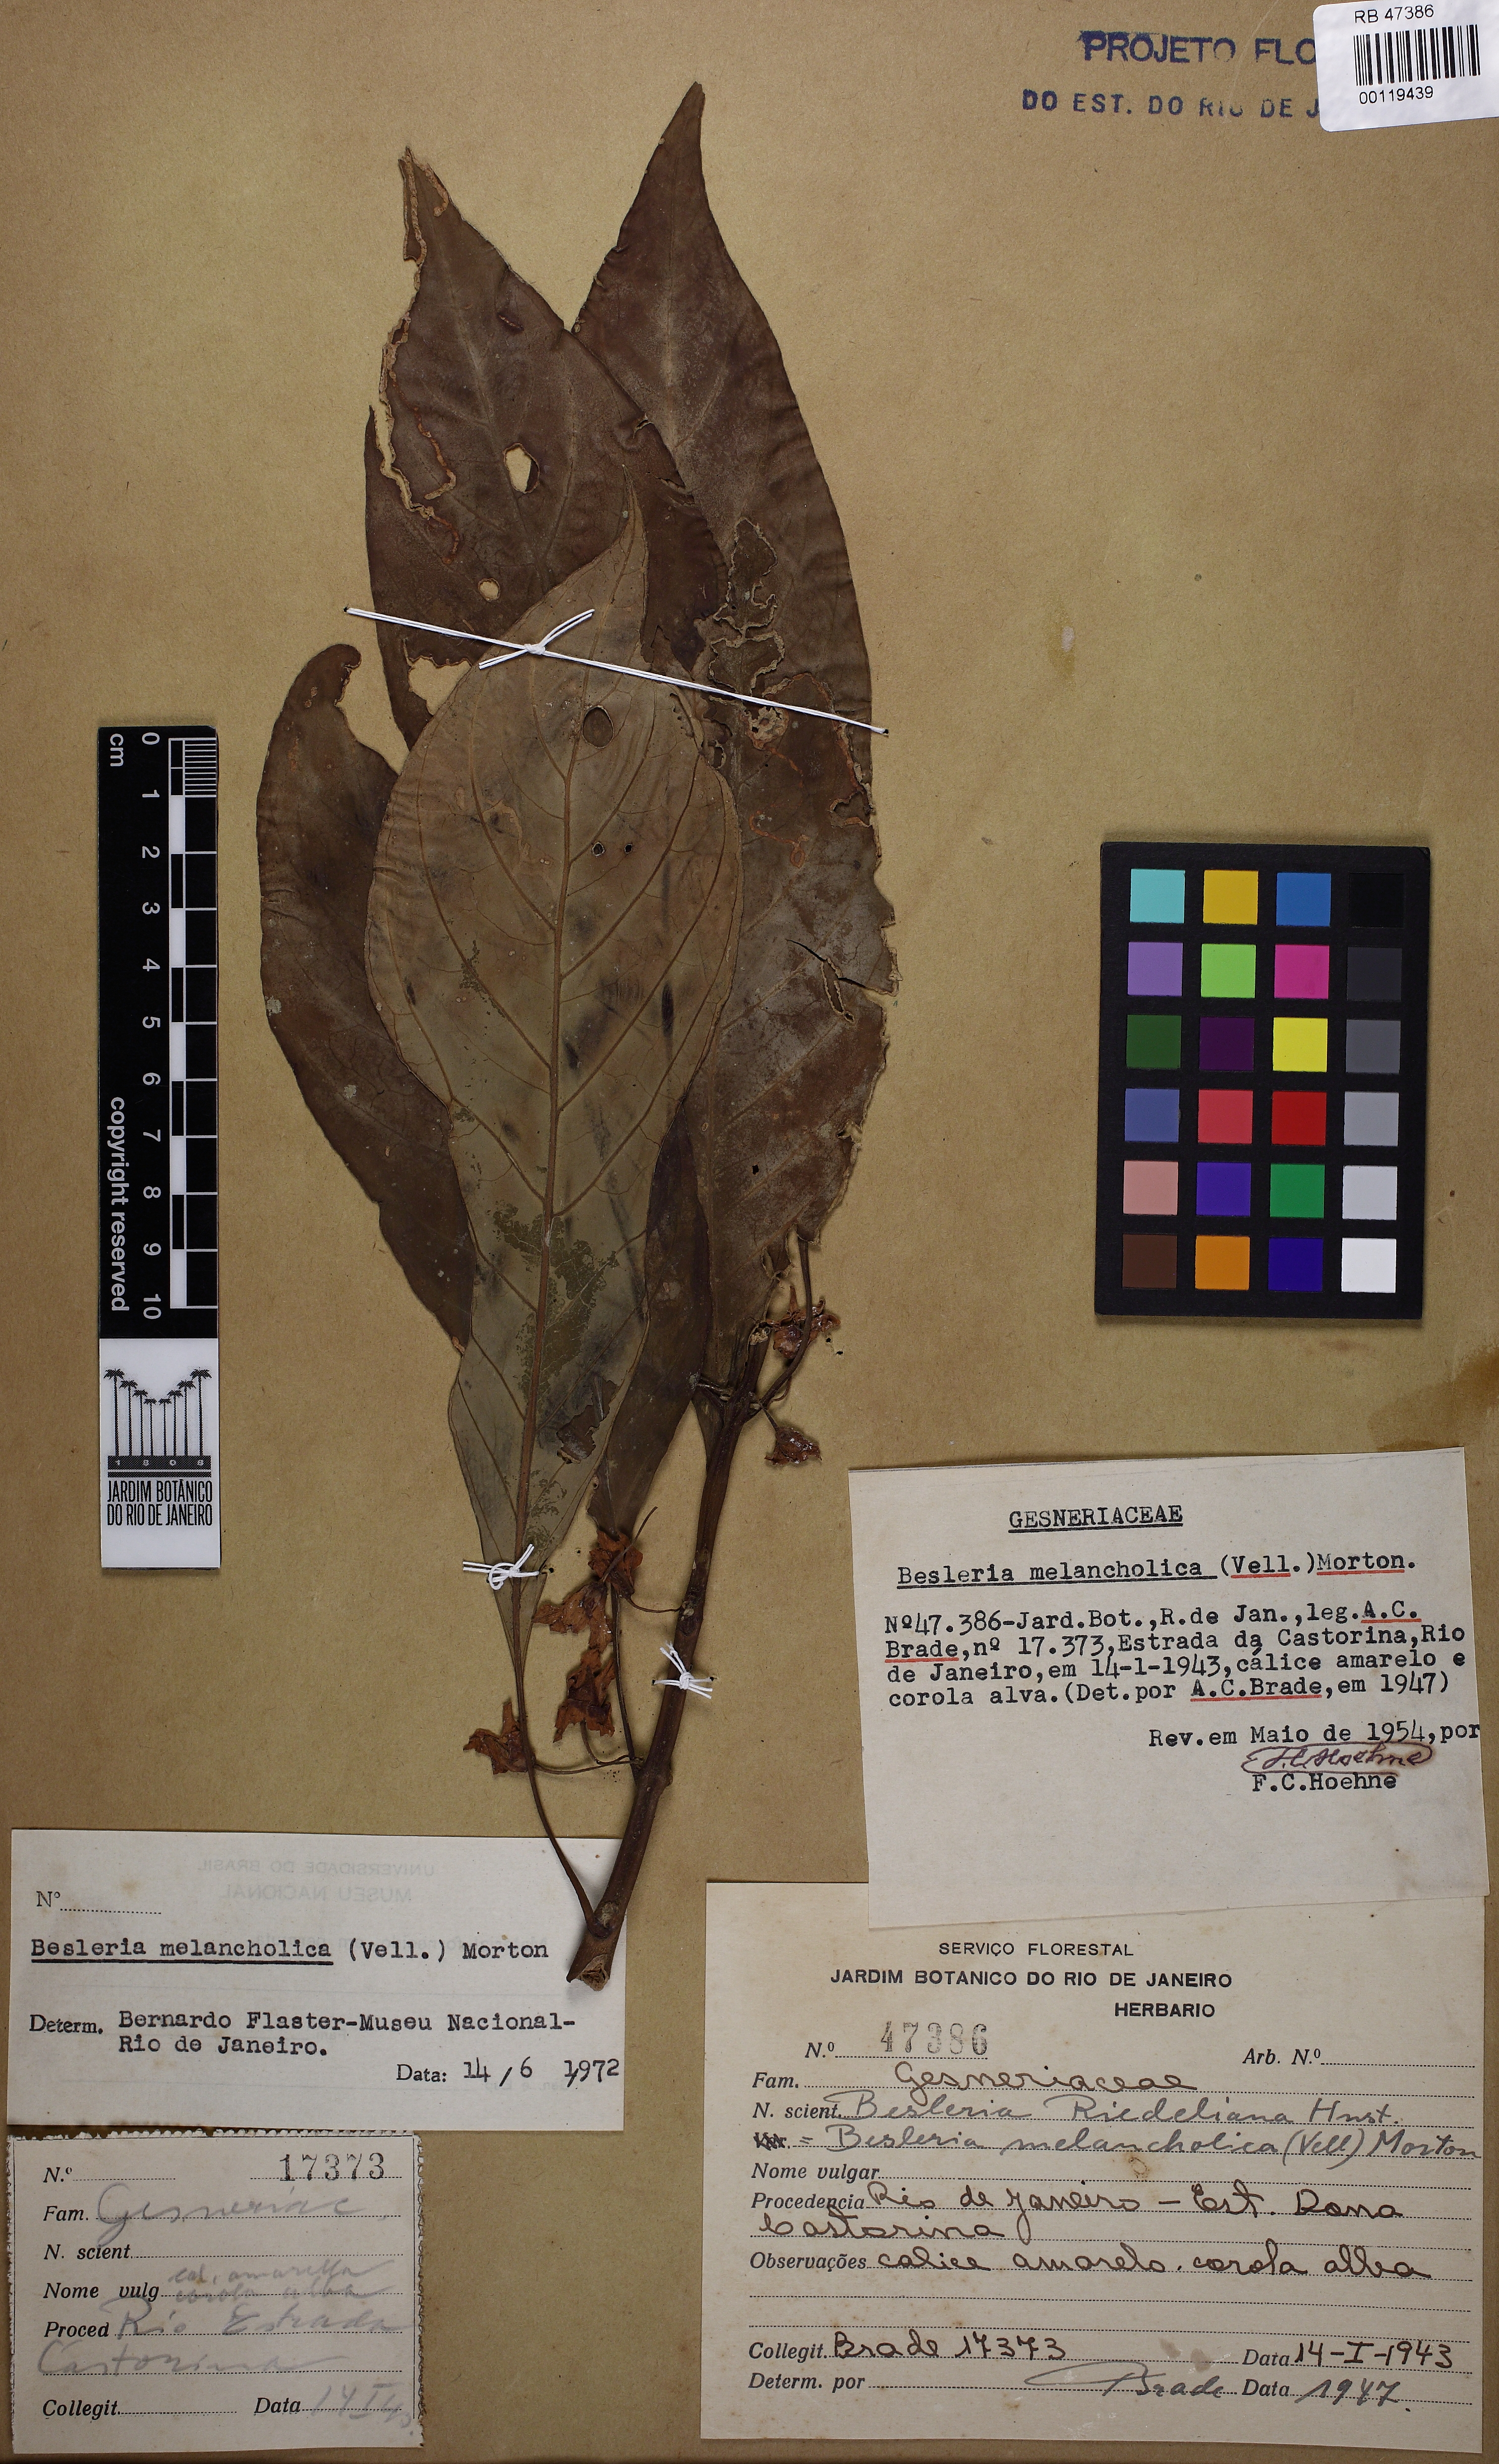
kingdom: Plantae
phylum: Tracheophyta
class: Magnoliopsida
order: Lamiales
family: Gesneriaceae
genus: Besleria
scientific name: Besleria melancholica
